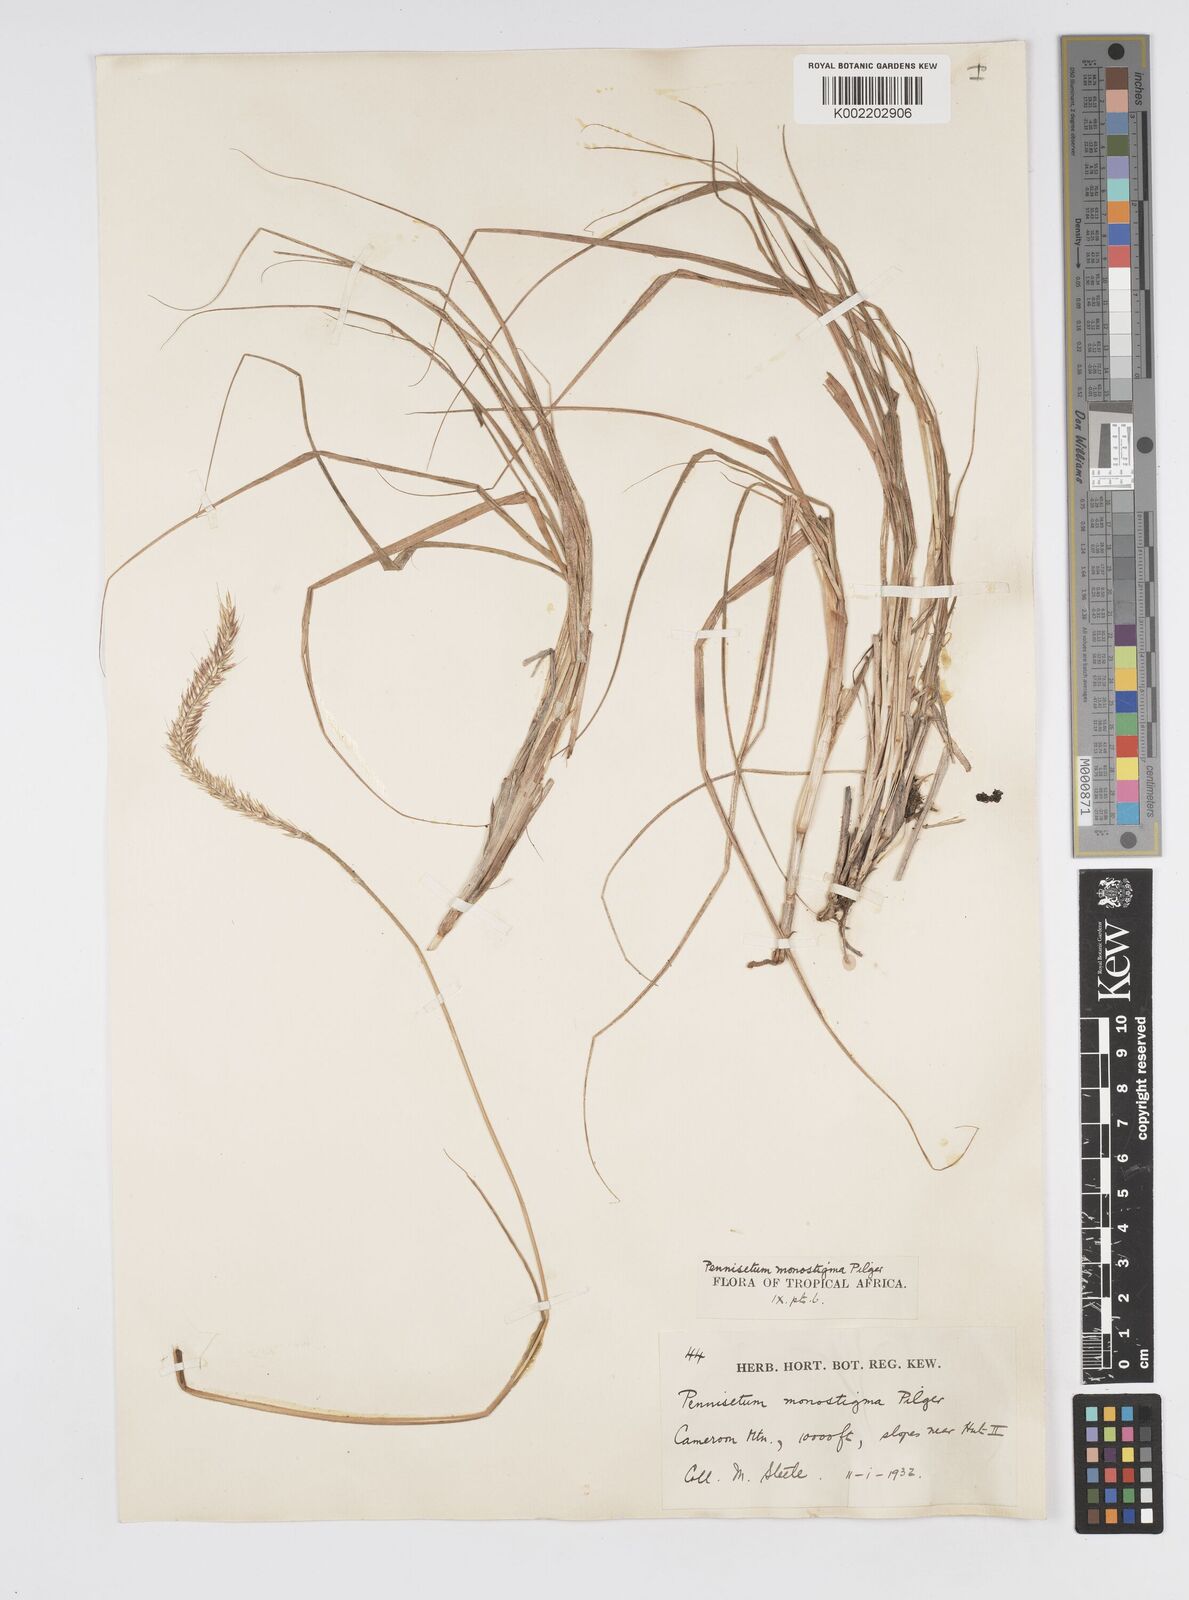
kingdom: Plantae
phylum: Tracheophyta
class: Liliopsida
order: Poales
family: Poaceae
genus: Cenchrus
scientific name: Cenchrus monostigma
